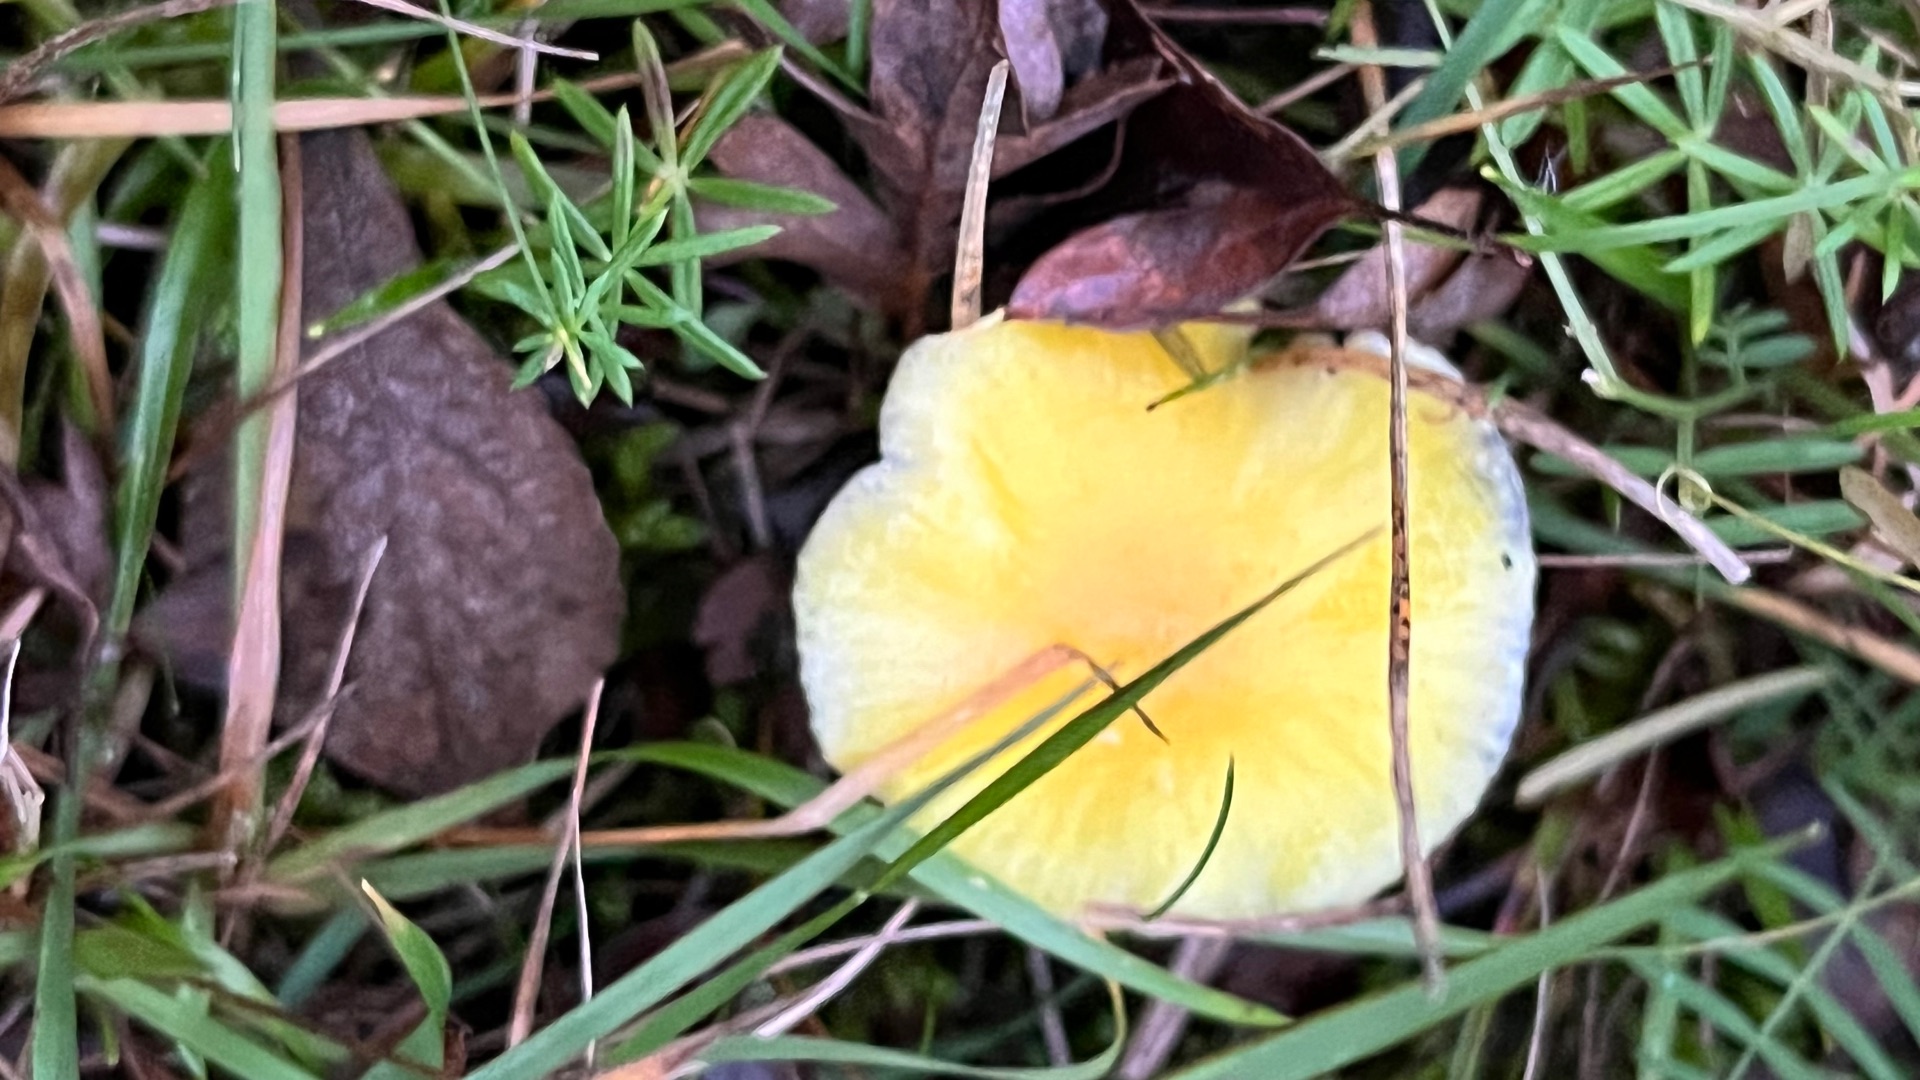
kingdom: Fungi
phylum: Basidiomycota
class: Agaricomycetes
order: Agaricales
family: Hygrophoraceae
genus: Hygrocybe
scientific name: Hygrocybe ceracea
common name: Voksgul vokshat
